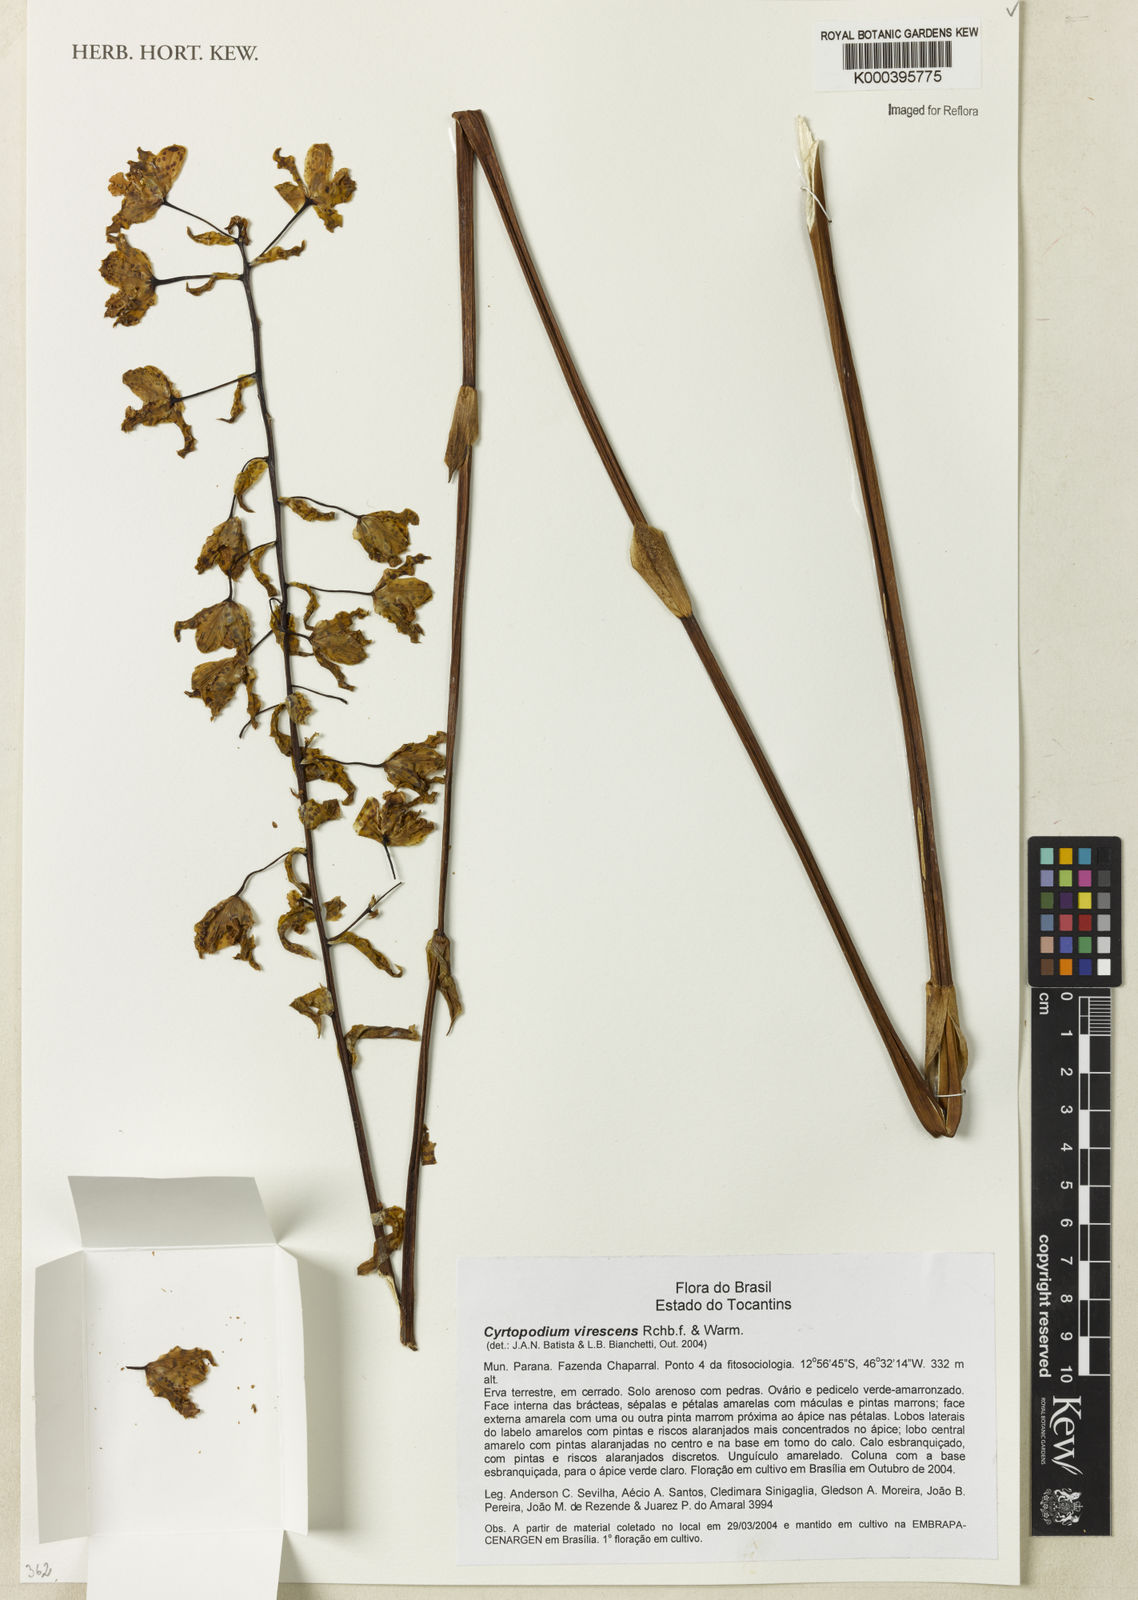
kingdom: Plantae
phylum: Tracheophyta
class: Liliopsida
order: Asparagales
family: Orchidaceae
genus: Cyrtopodium
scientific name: Cyrtopodium virescens
